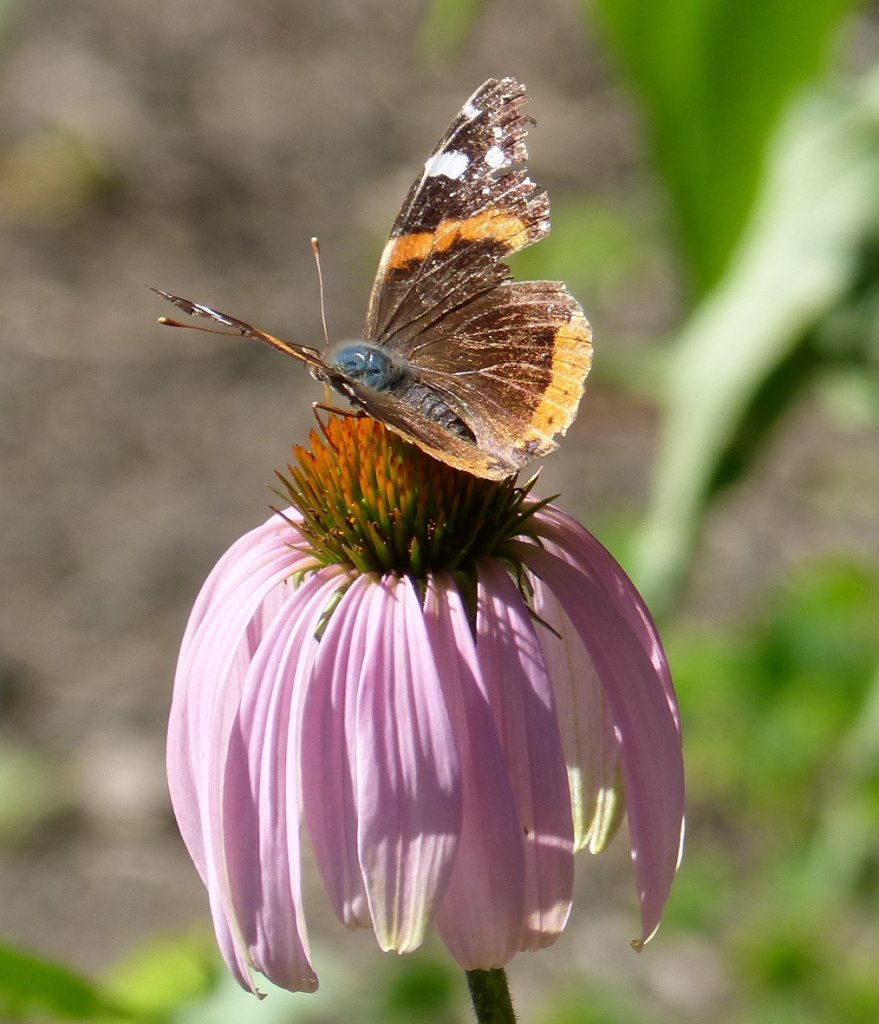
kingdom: Animalia
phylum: Arthropoda
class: Insecta
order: Lepidoptera
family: Nymphalidae
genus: Vanessa
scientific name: Vanessa atalanta
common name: Red Admiral
